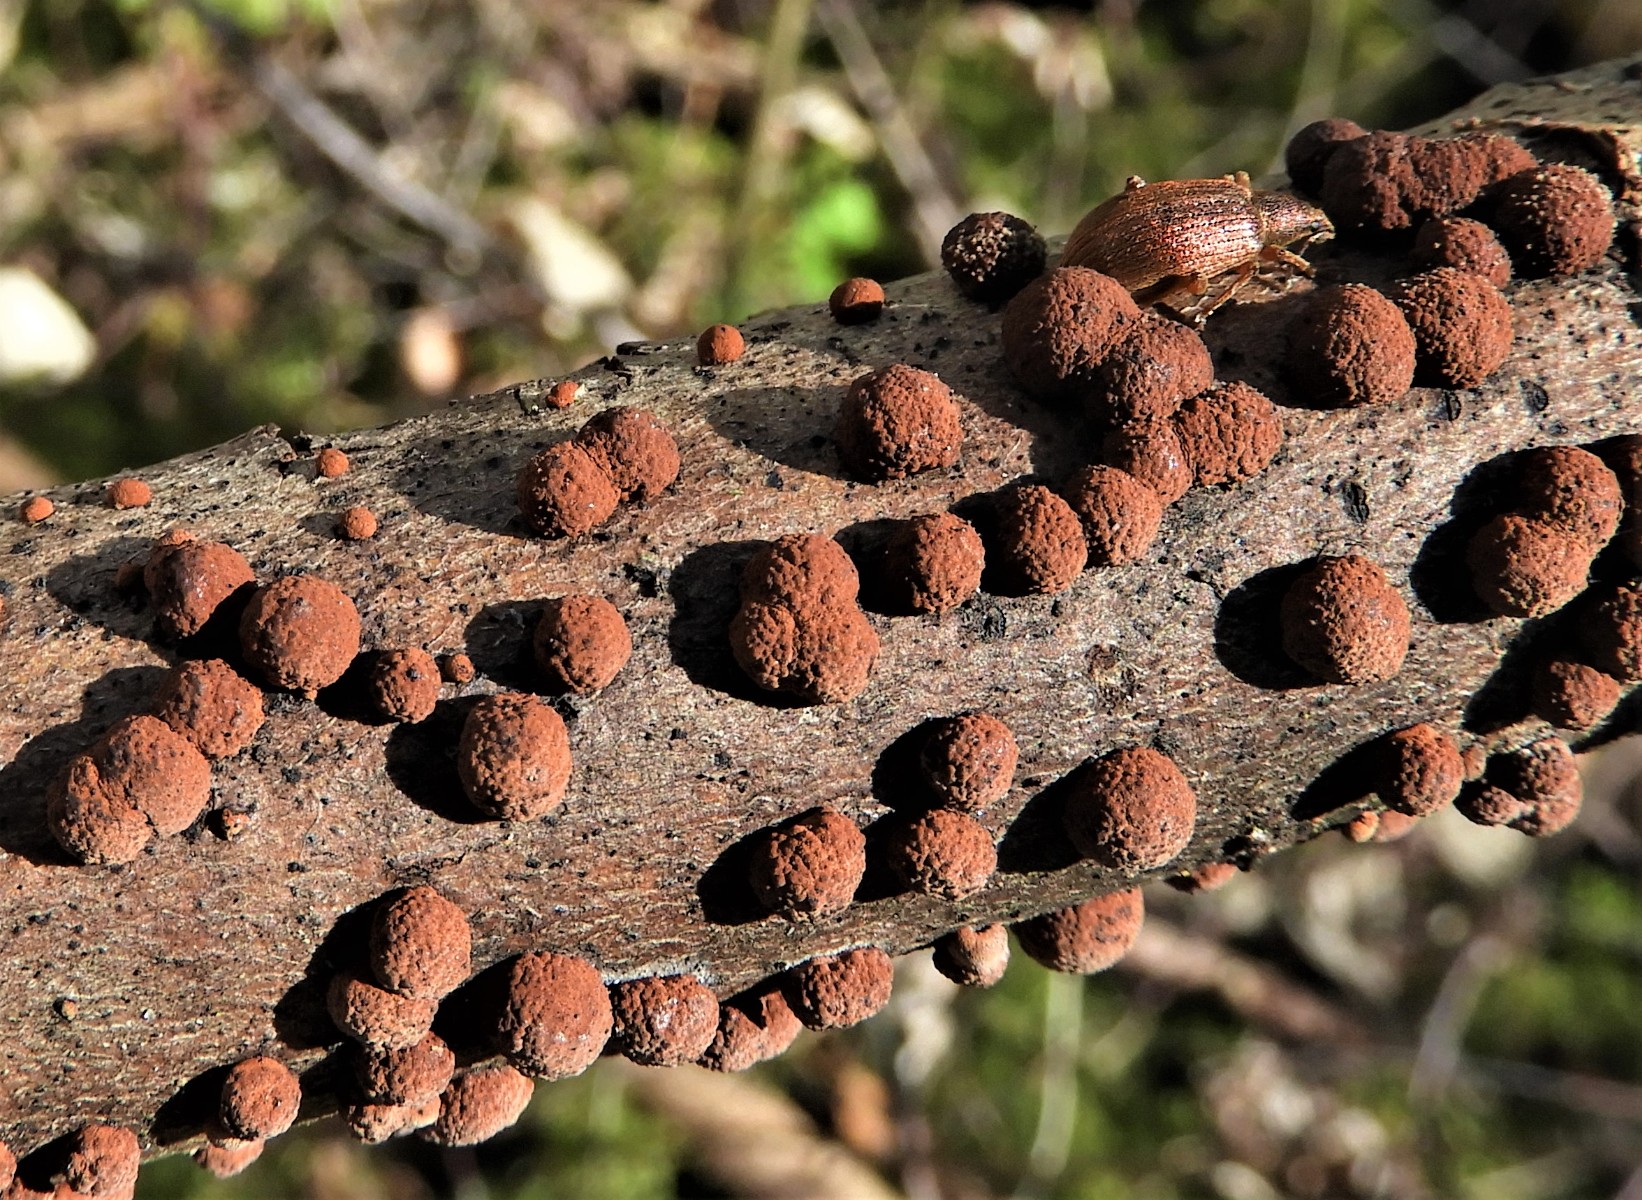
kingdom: Fungi
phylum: Ascomycota
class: Sordariomycetes
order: Xylariales
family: Hypoxylaceae
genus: Hypoxylon
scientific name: Hypoxylon fragiforme
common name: kuljordbær
